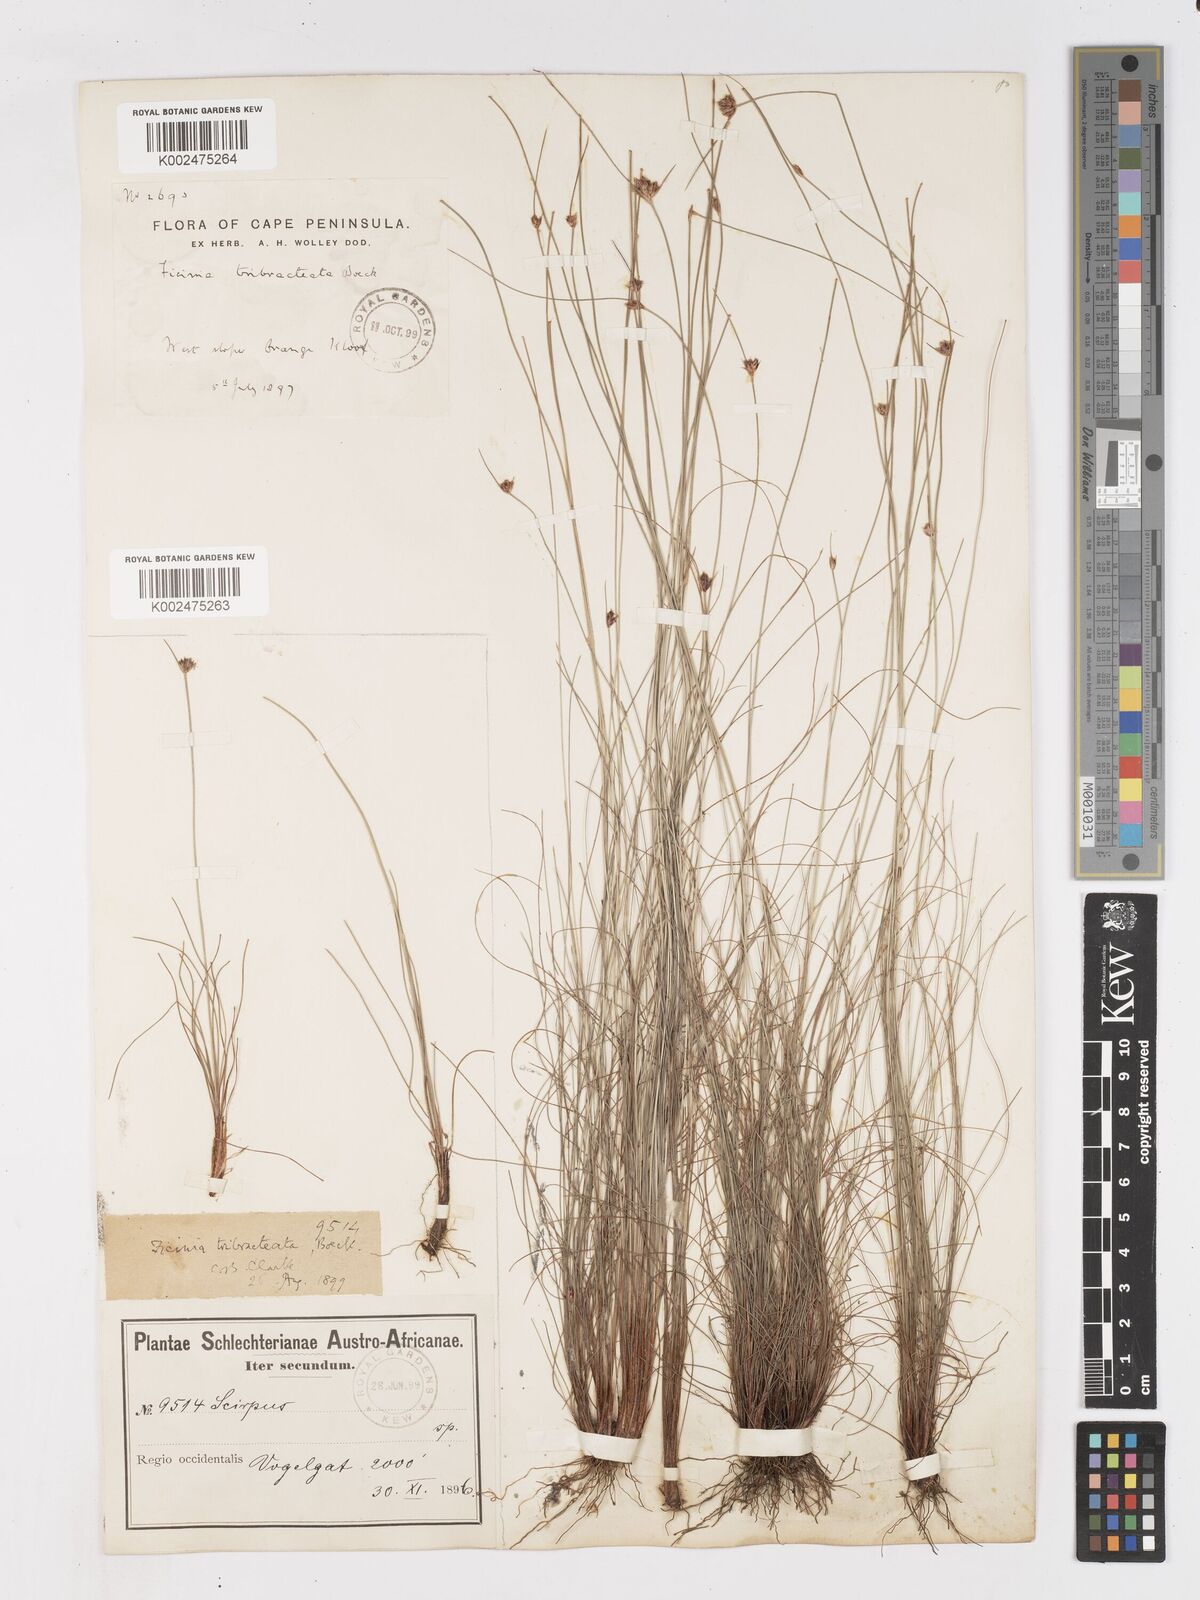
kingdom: Plantae
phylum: Tracheophyta
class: Liliopsida
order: Poales
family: Cyperaceae
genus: Ficinia
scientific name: Ficinia tristachya
